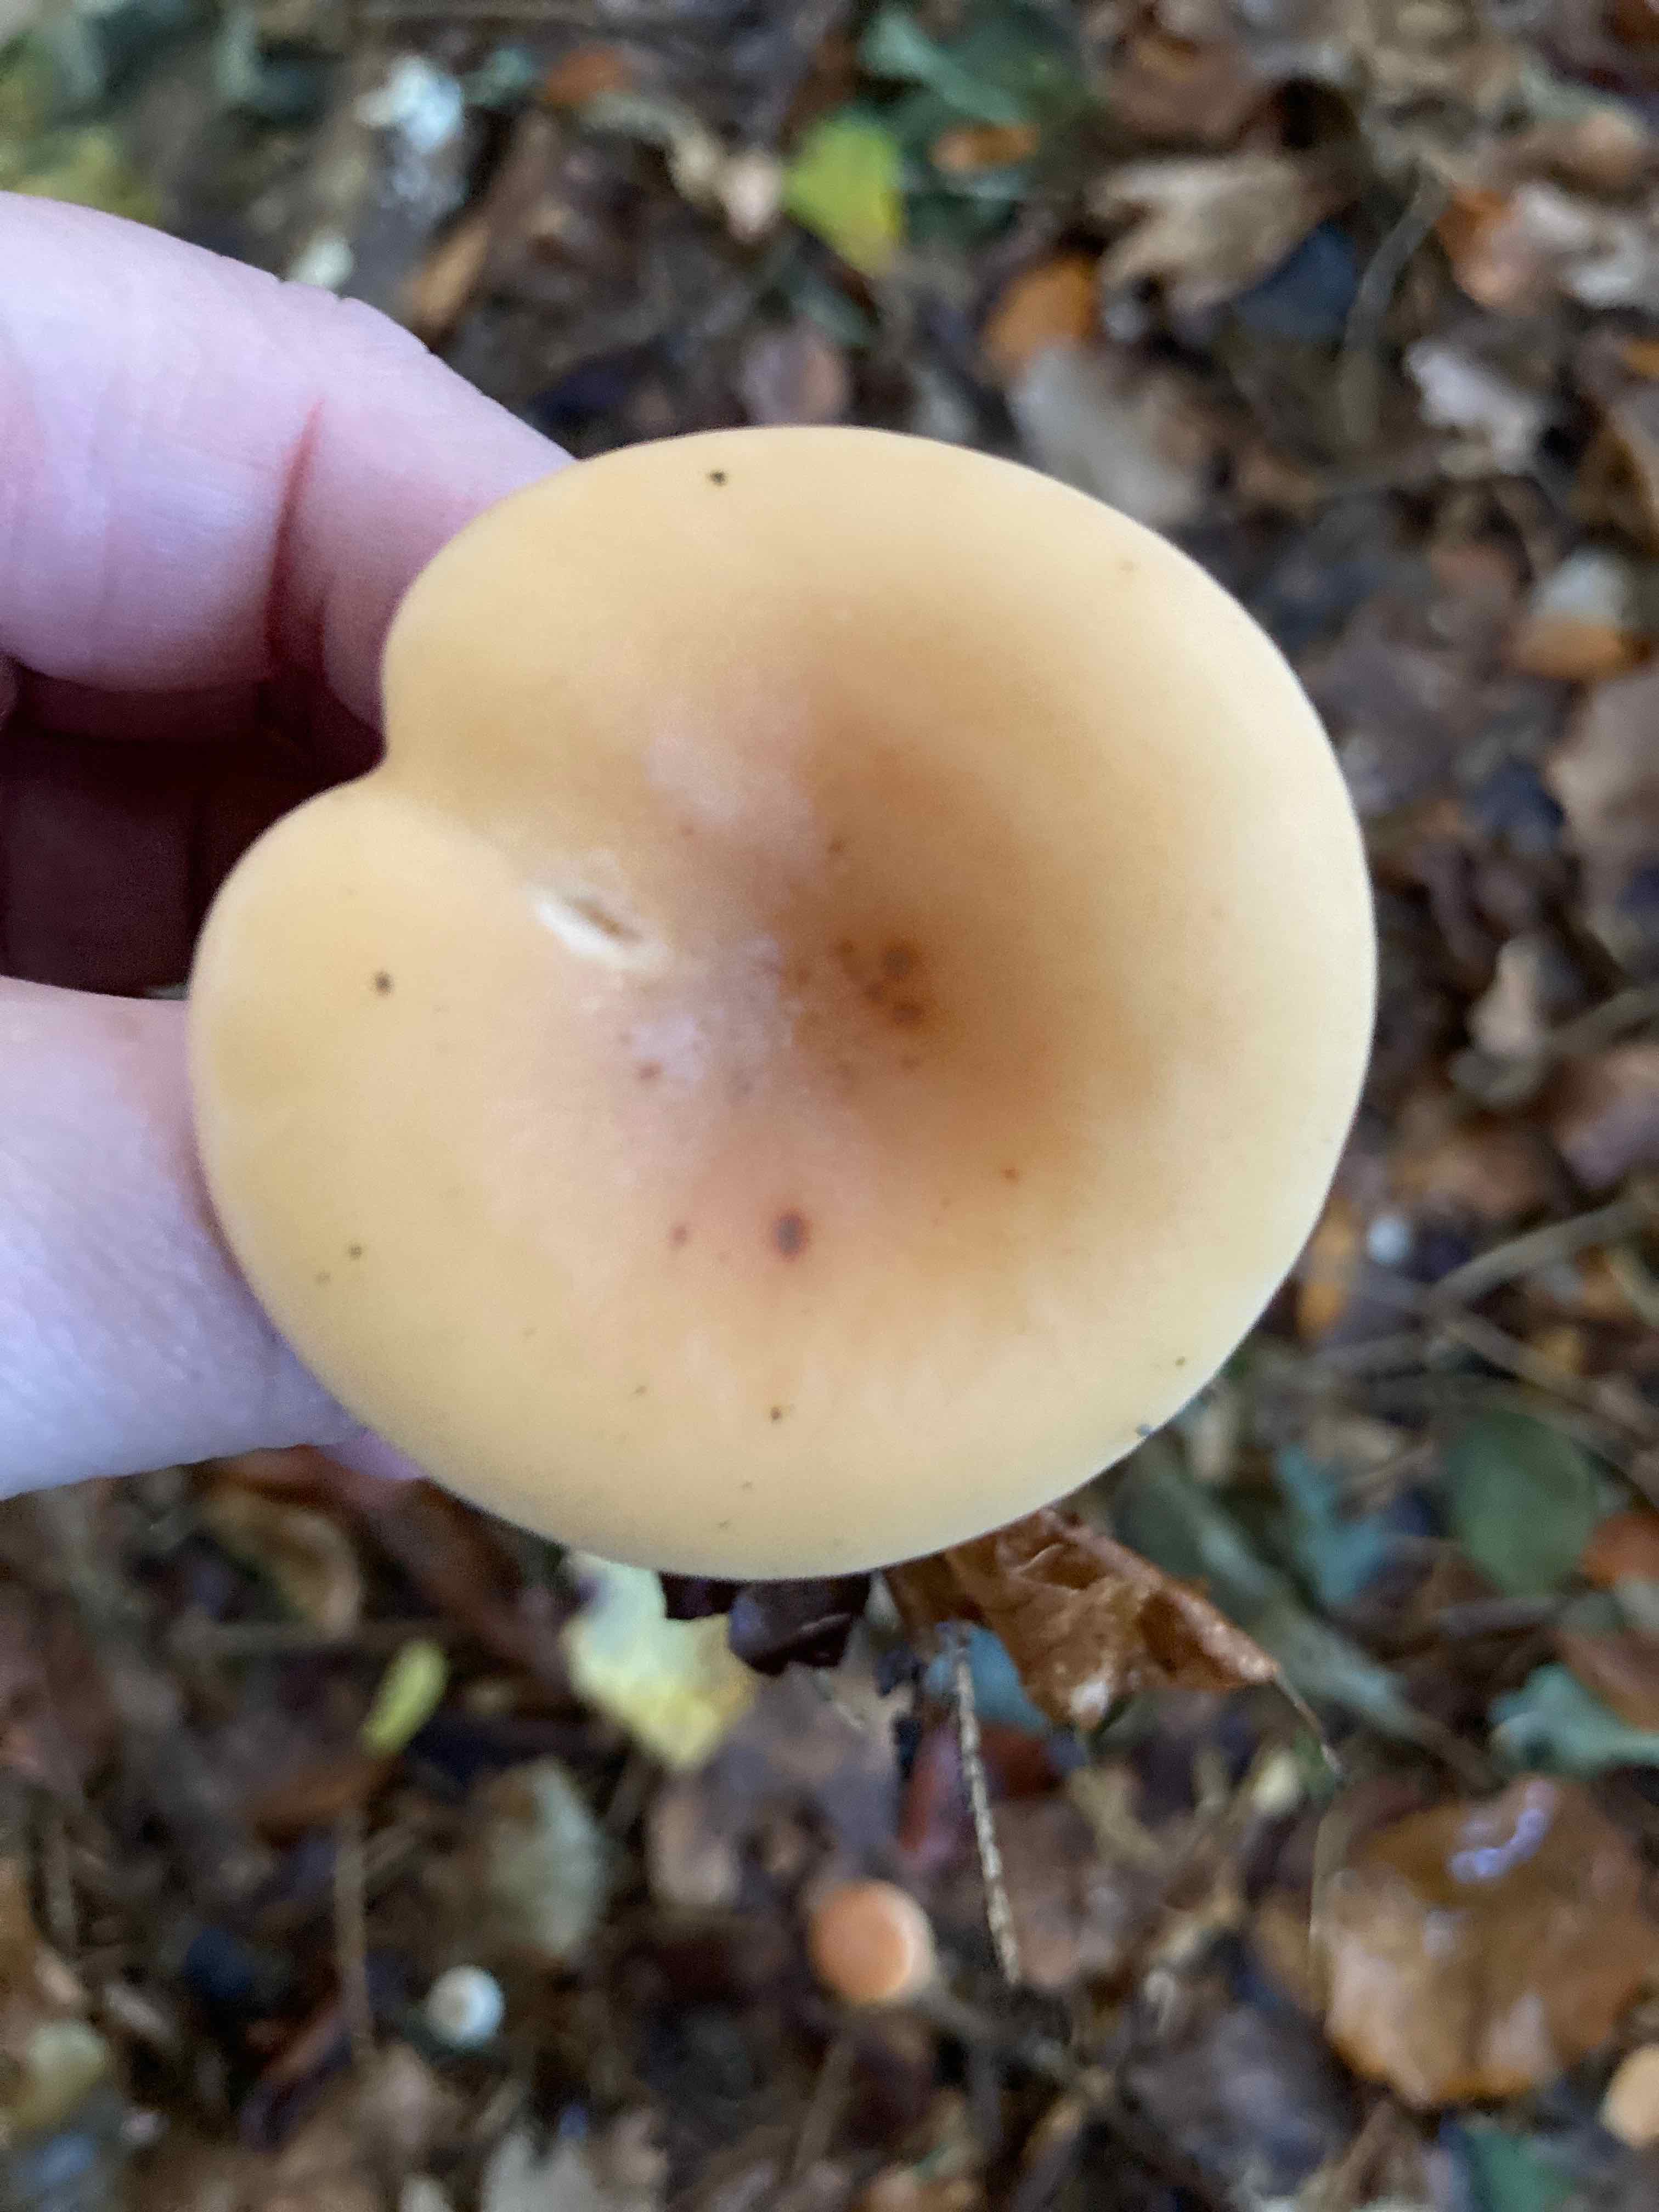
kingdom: Fungi
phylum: Basidiomycota
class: Agaricomycetes
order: Agaricales
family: Tricholomataceae
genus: Paralepista
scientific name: Paralepista flaccida
